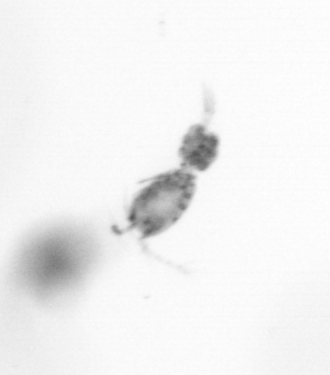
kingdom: Animalia
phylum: Arthropoda
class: Copepoda
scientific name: Copepoda
